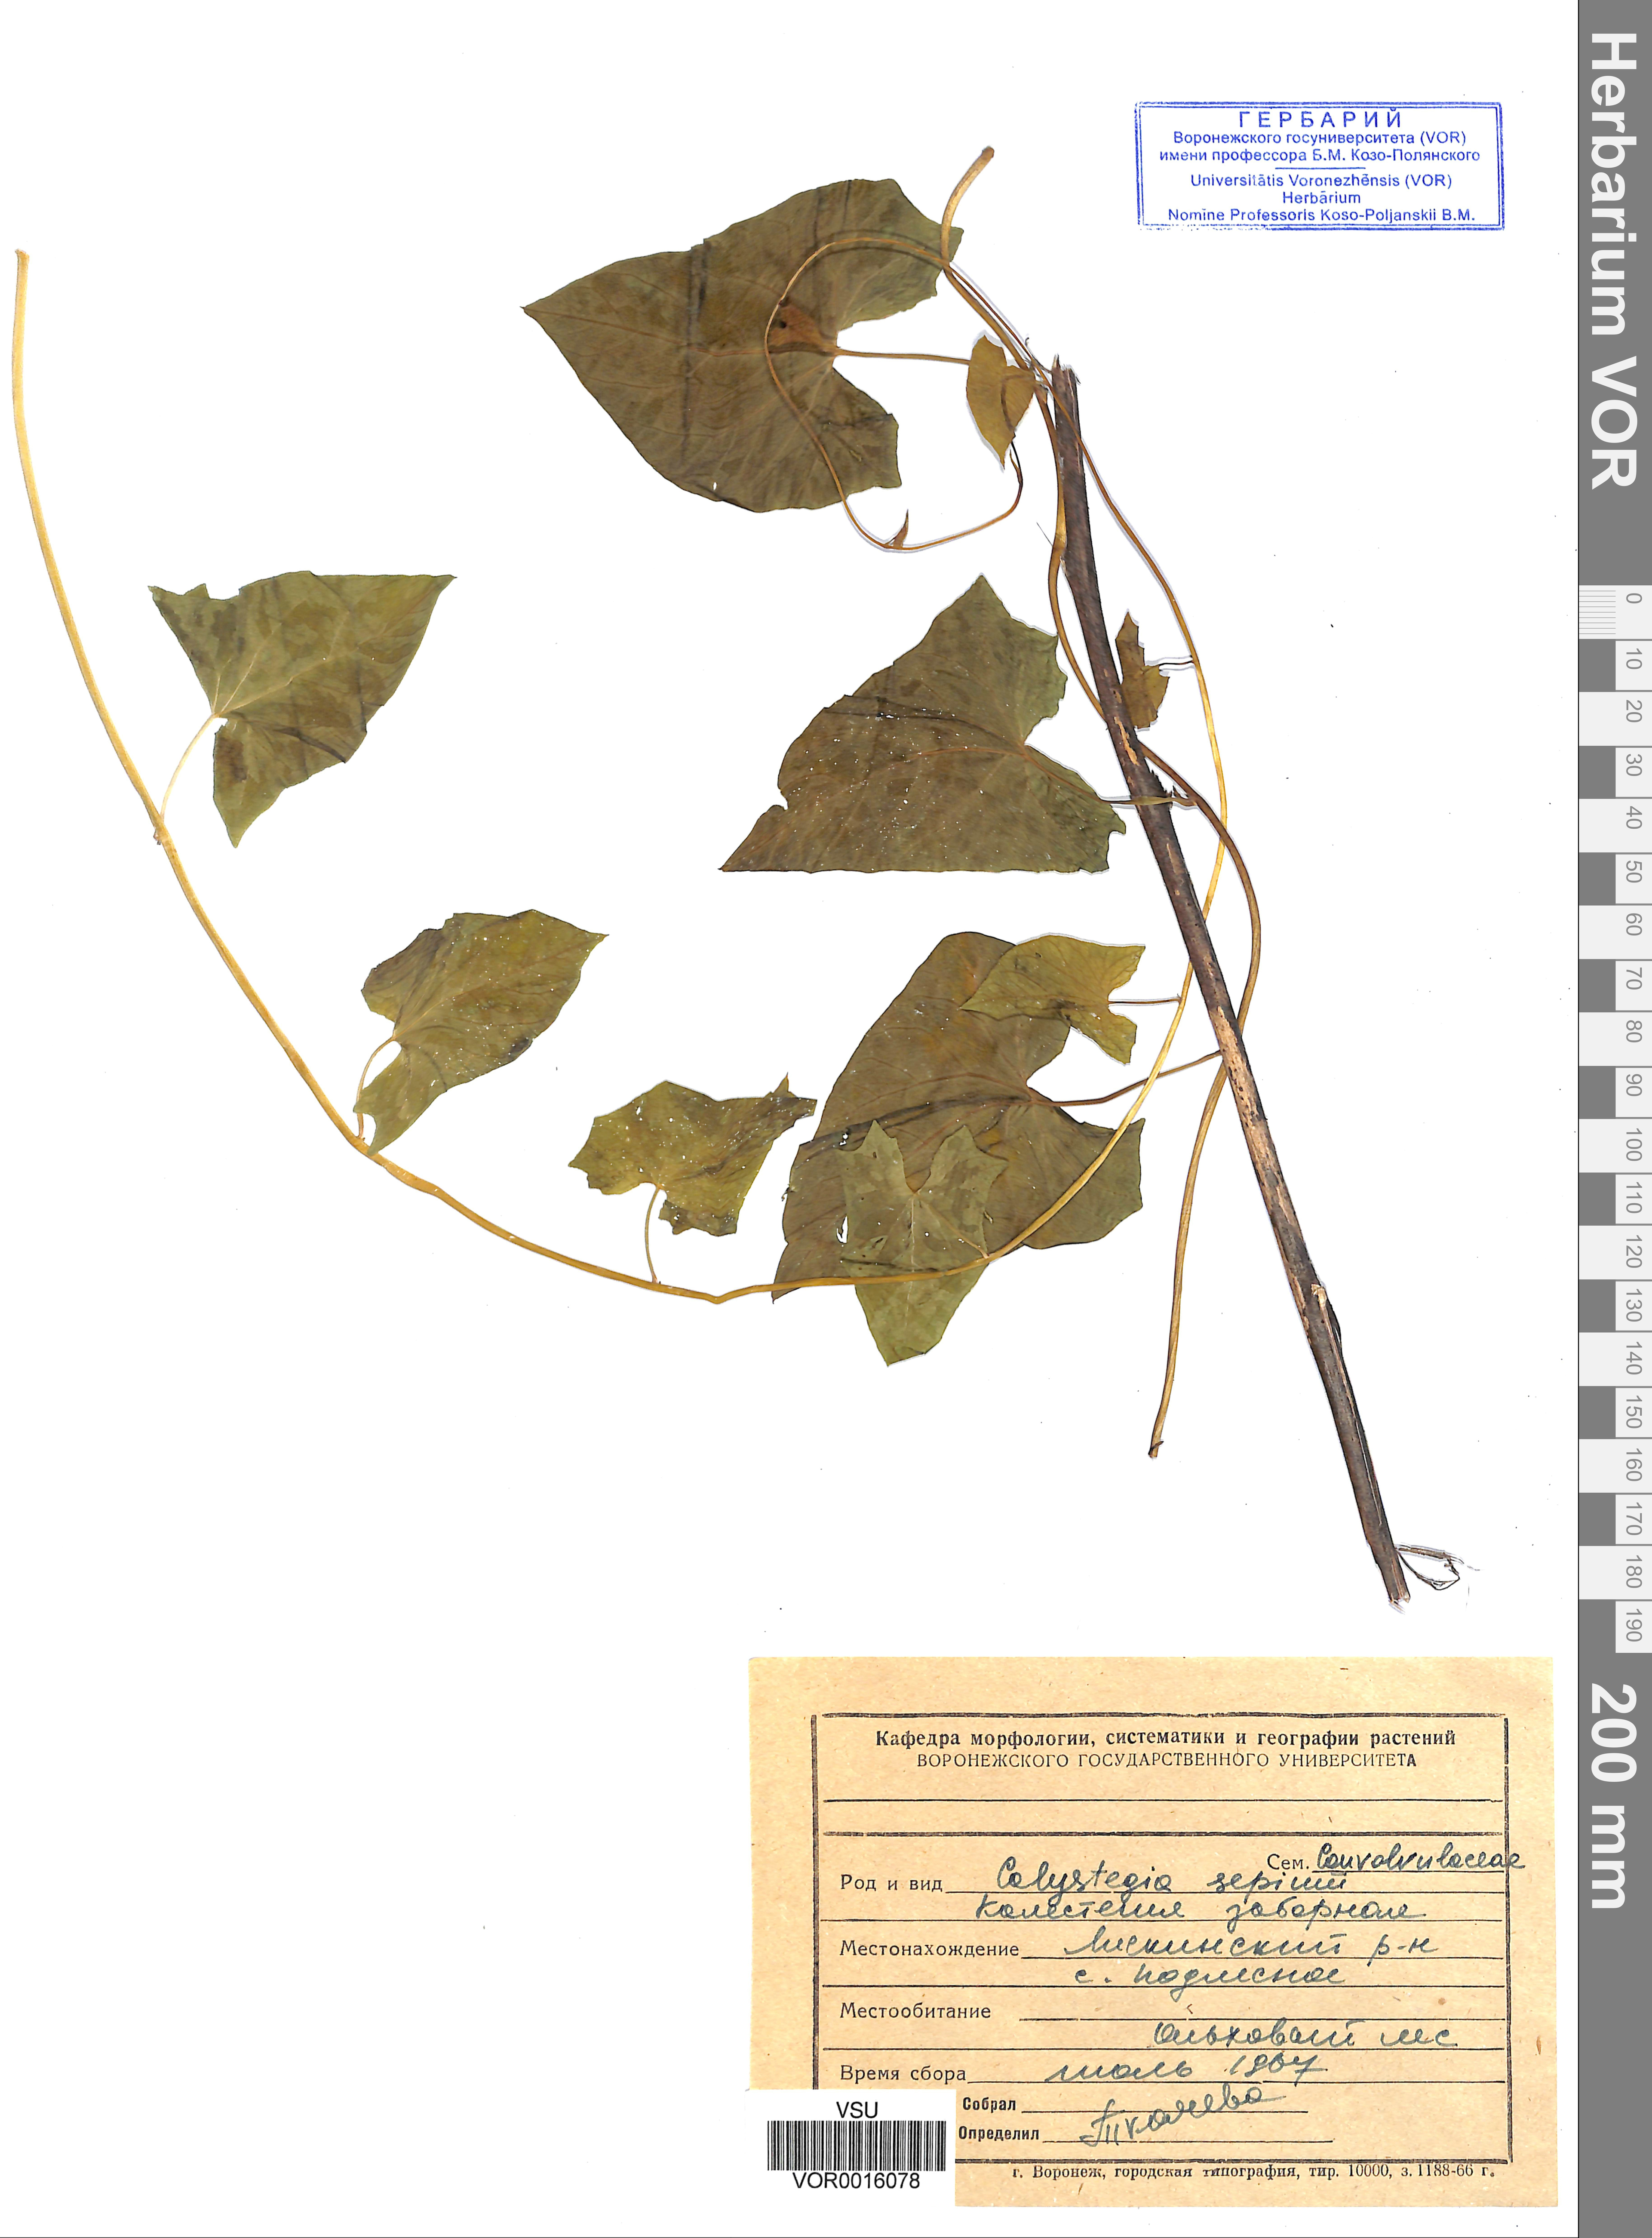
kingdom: Plantae
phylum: Tracheophyta
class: Magnoliopsida
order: Solanales
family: Convolvulaceae
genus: Calystegia
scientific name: Calystegia sepium
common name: Hedge bindweed
